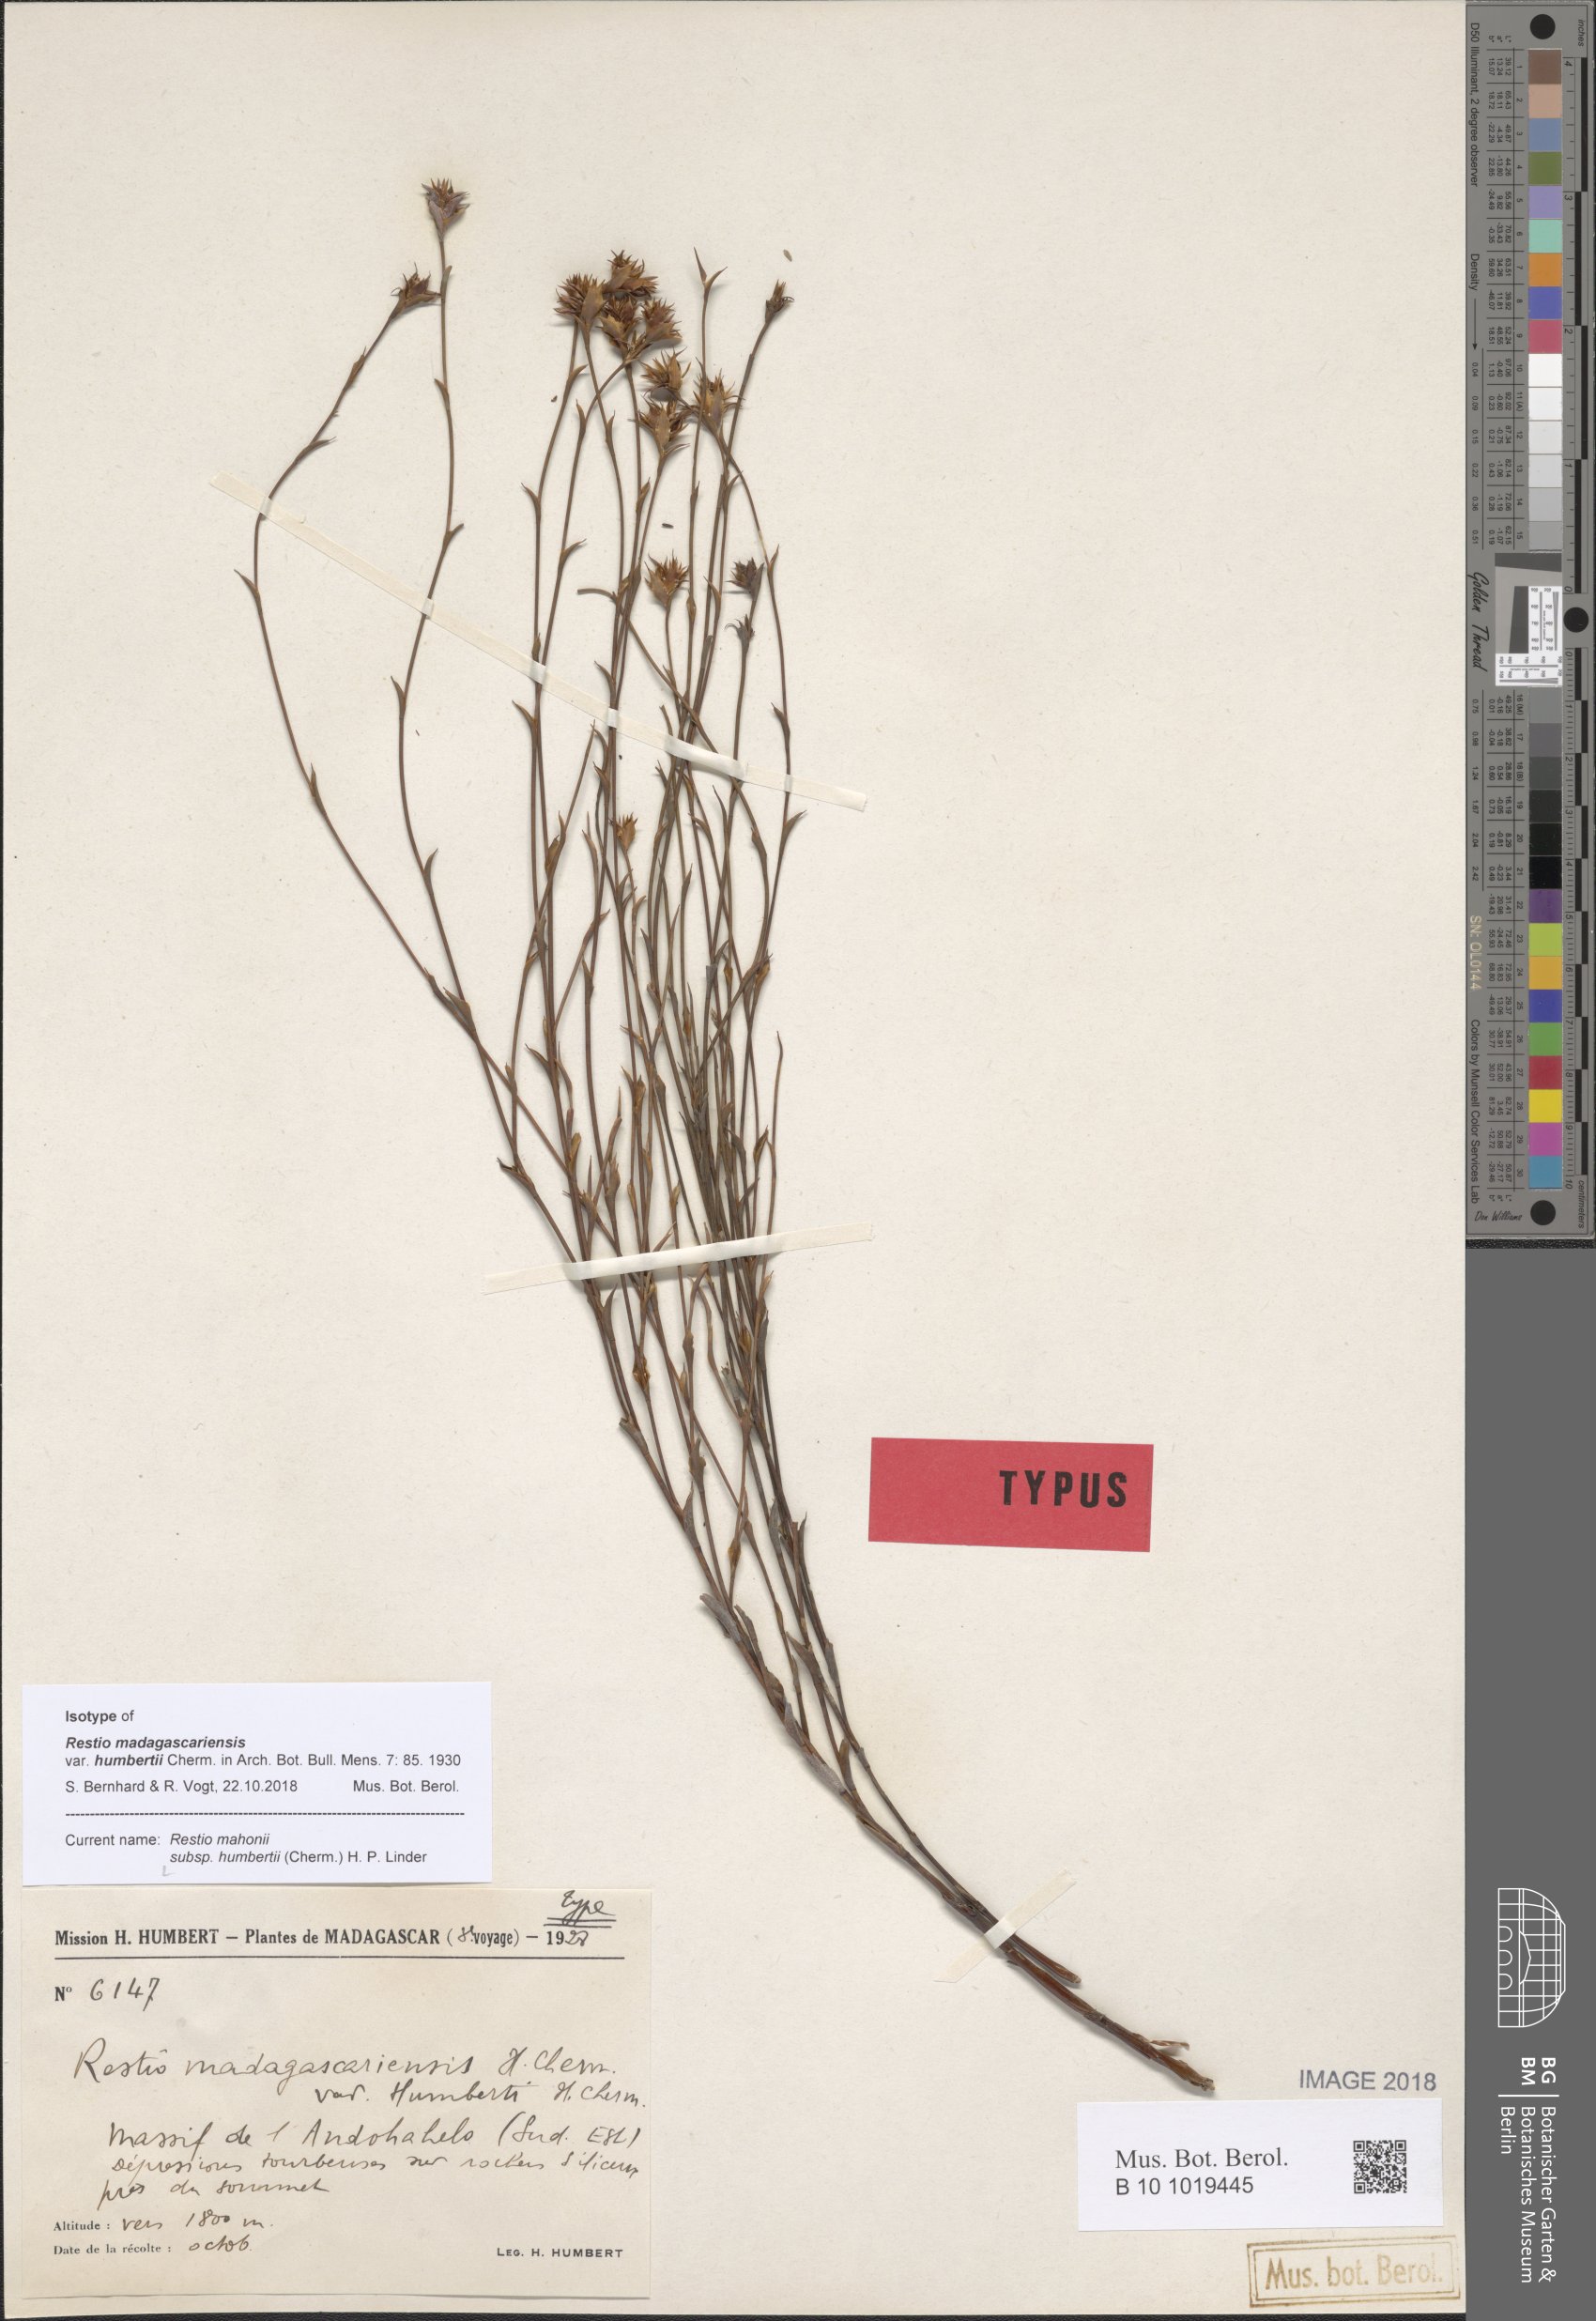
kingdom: Plantae
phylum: Tracheophyta
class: Liliopsida
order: Poales
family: Restionaceae
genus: Platycaulos
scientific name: Platycaulos mahonii
